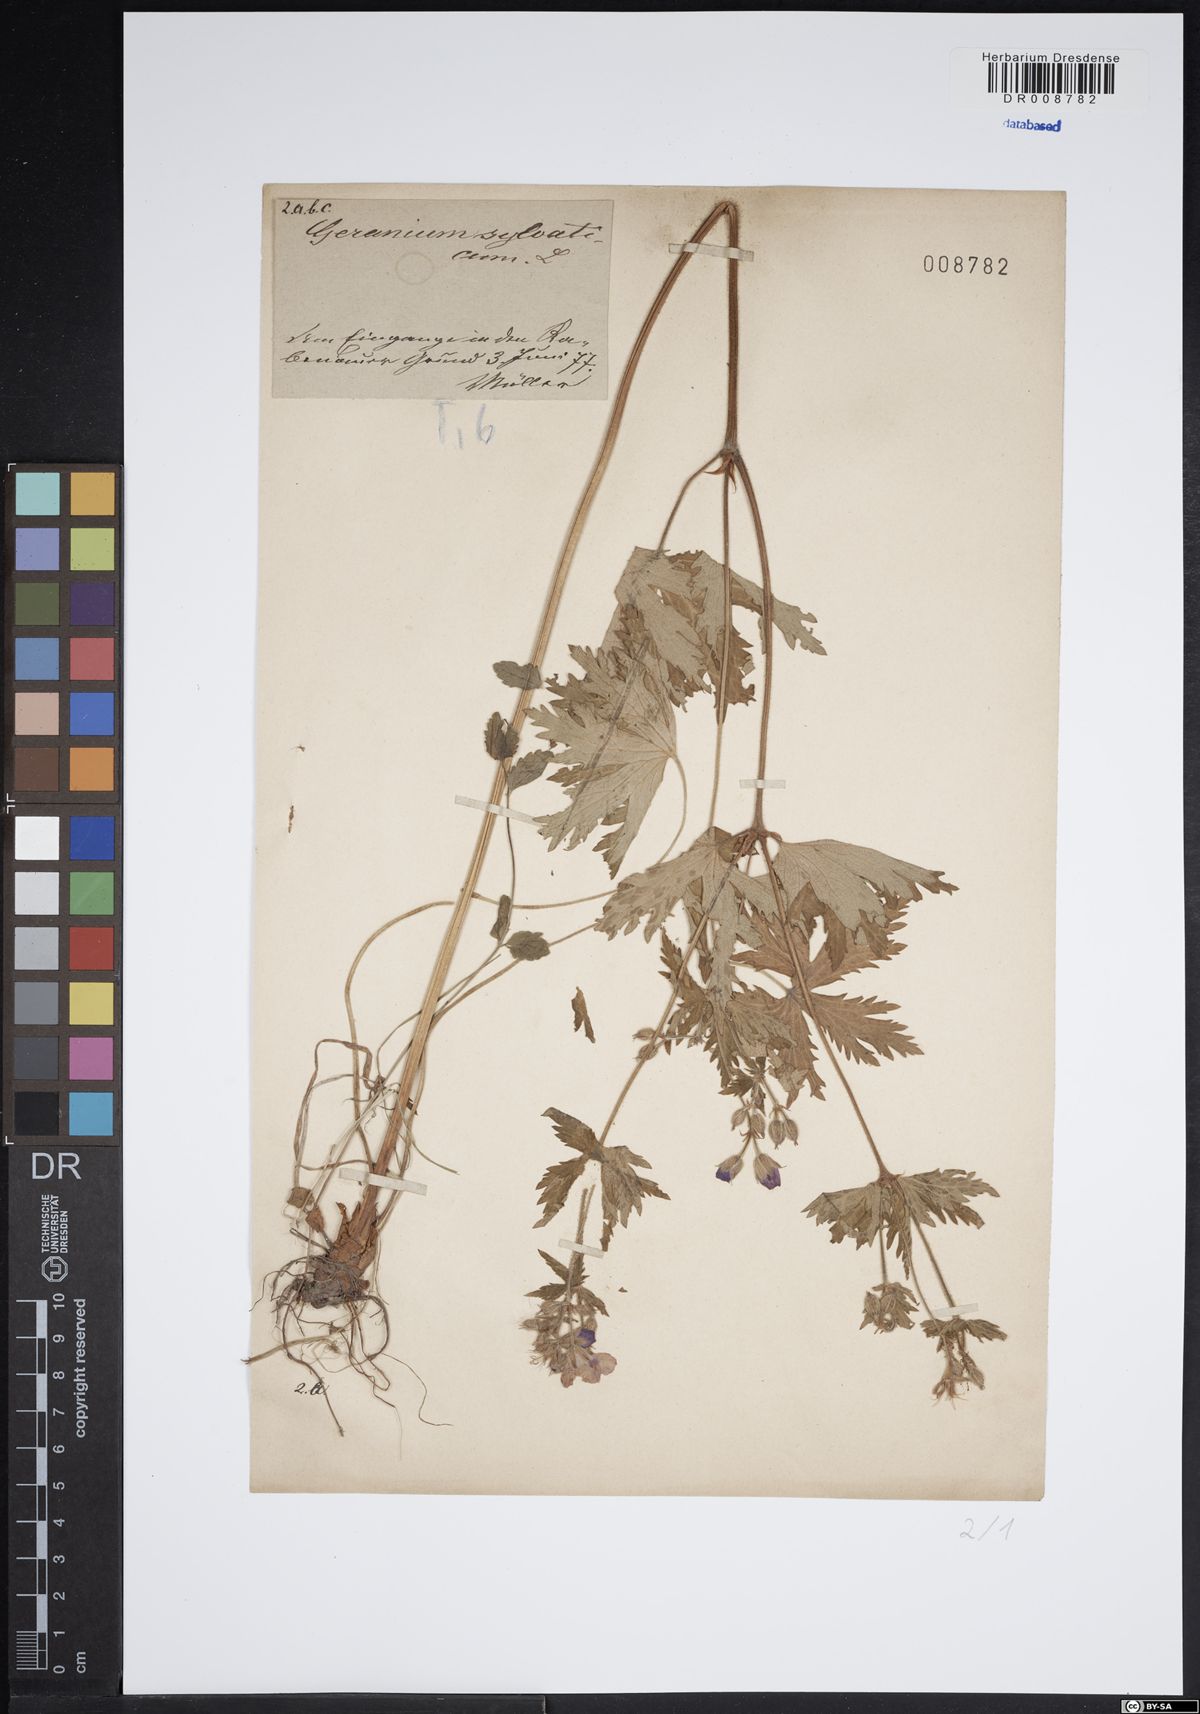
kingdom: Plantae
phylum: Tracheophyta
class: Magnoliopsida
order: Geraniales
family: Geraniaceae
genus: Geranium
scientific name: Geranium sylvaticum
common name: Wood crane's-bill
